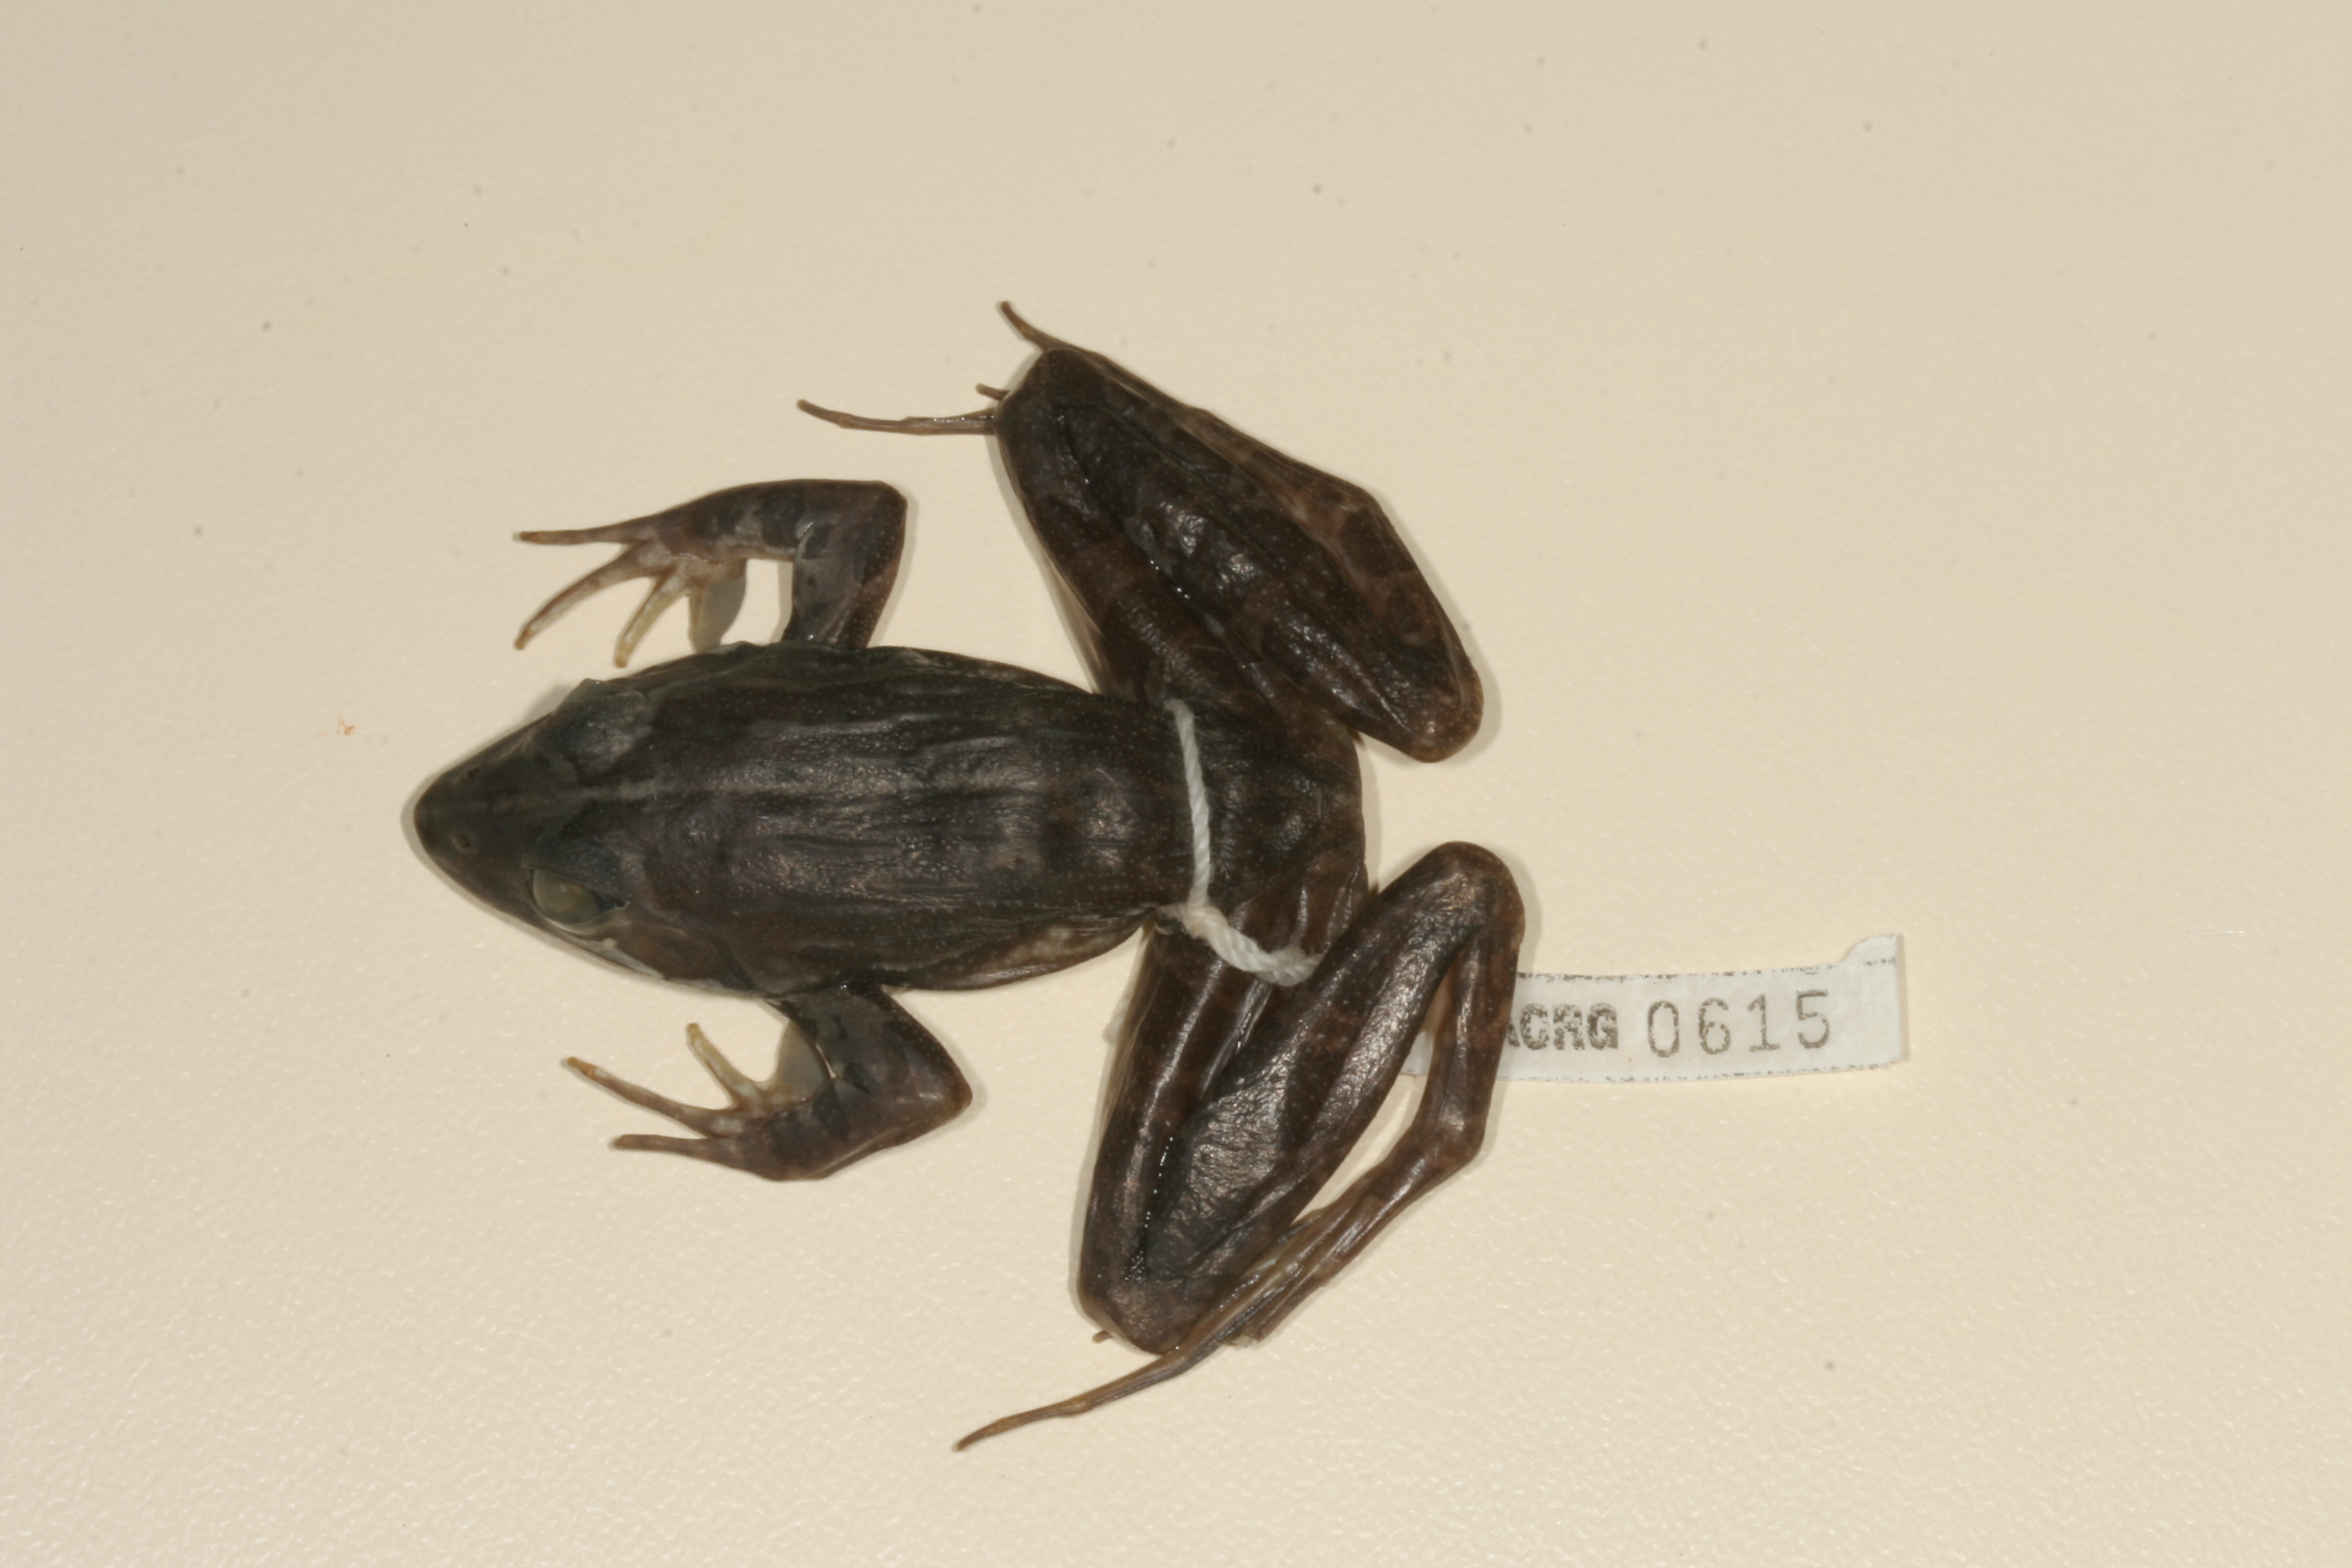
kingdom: Animalia
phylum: Chordata
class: Amphibia
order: Anura
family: Pyxicephalidae
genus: Amietia
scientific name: Amietia angolensis
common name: Dusky-throated frog
